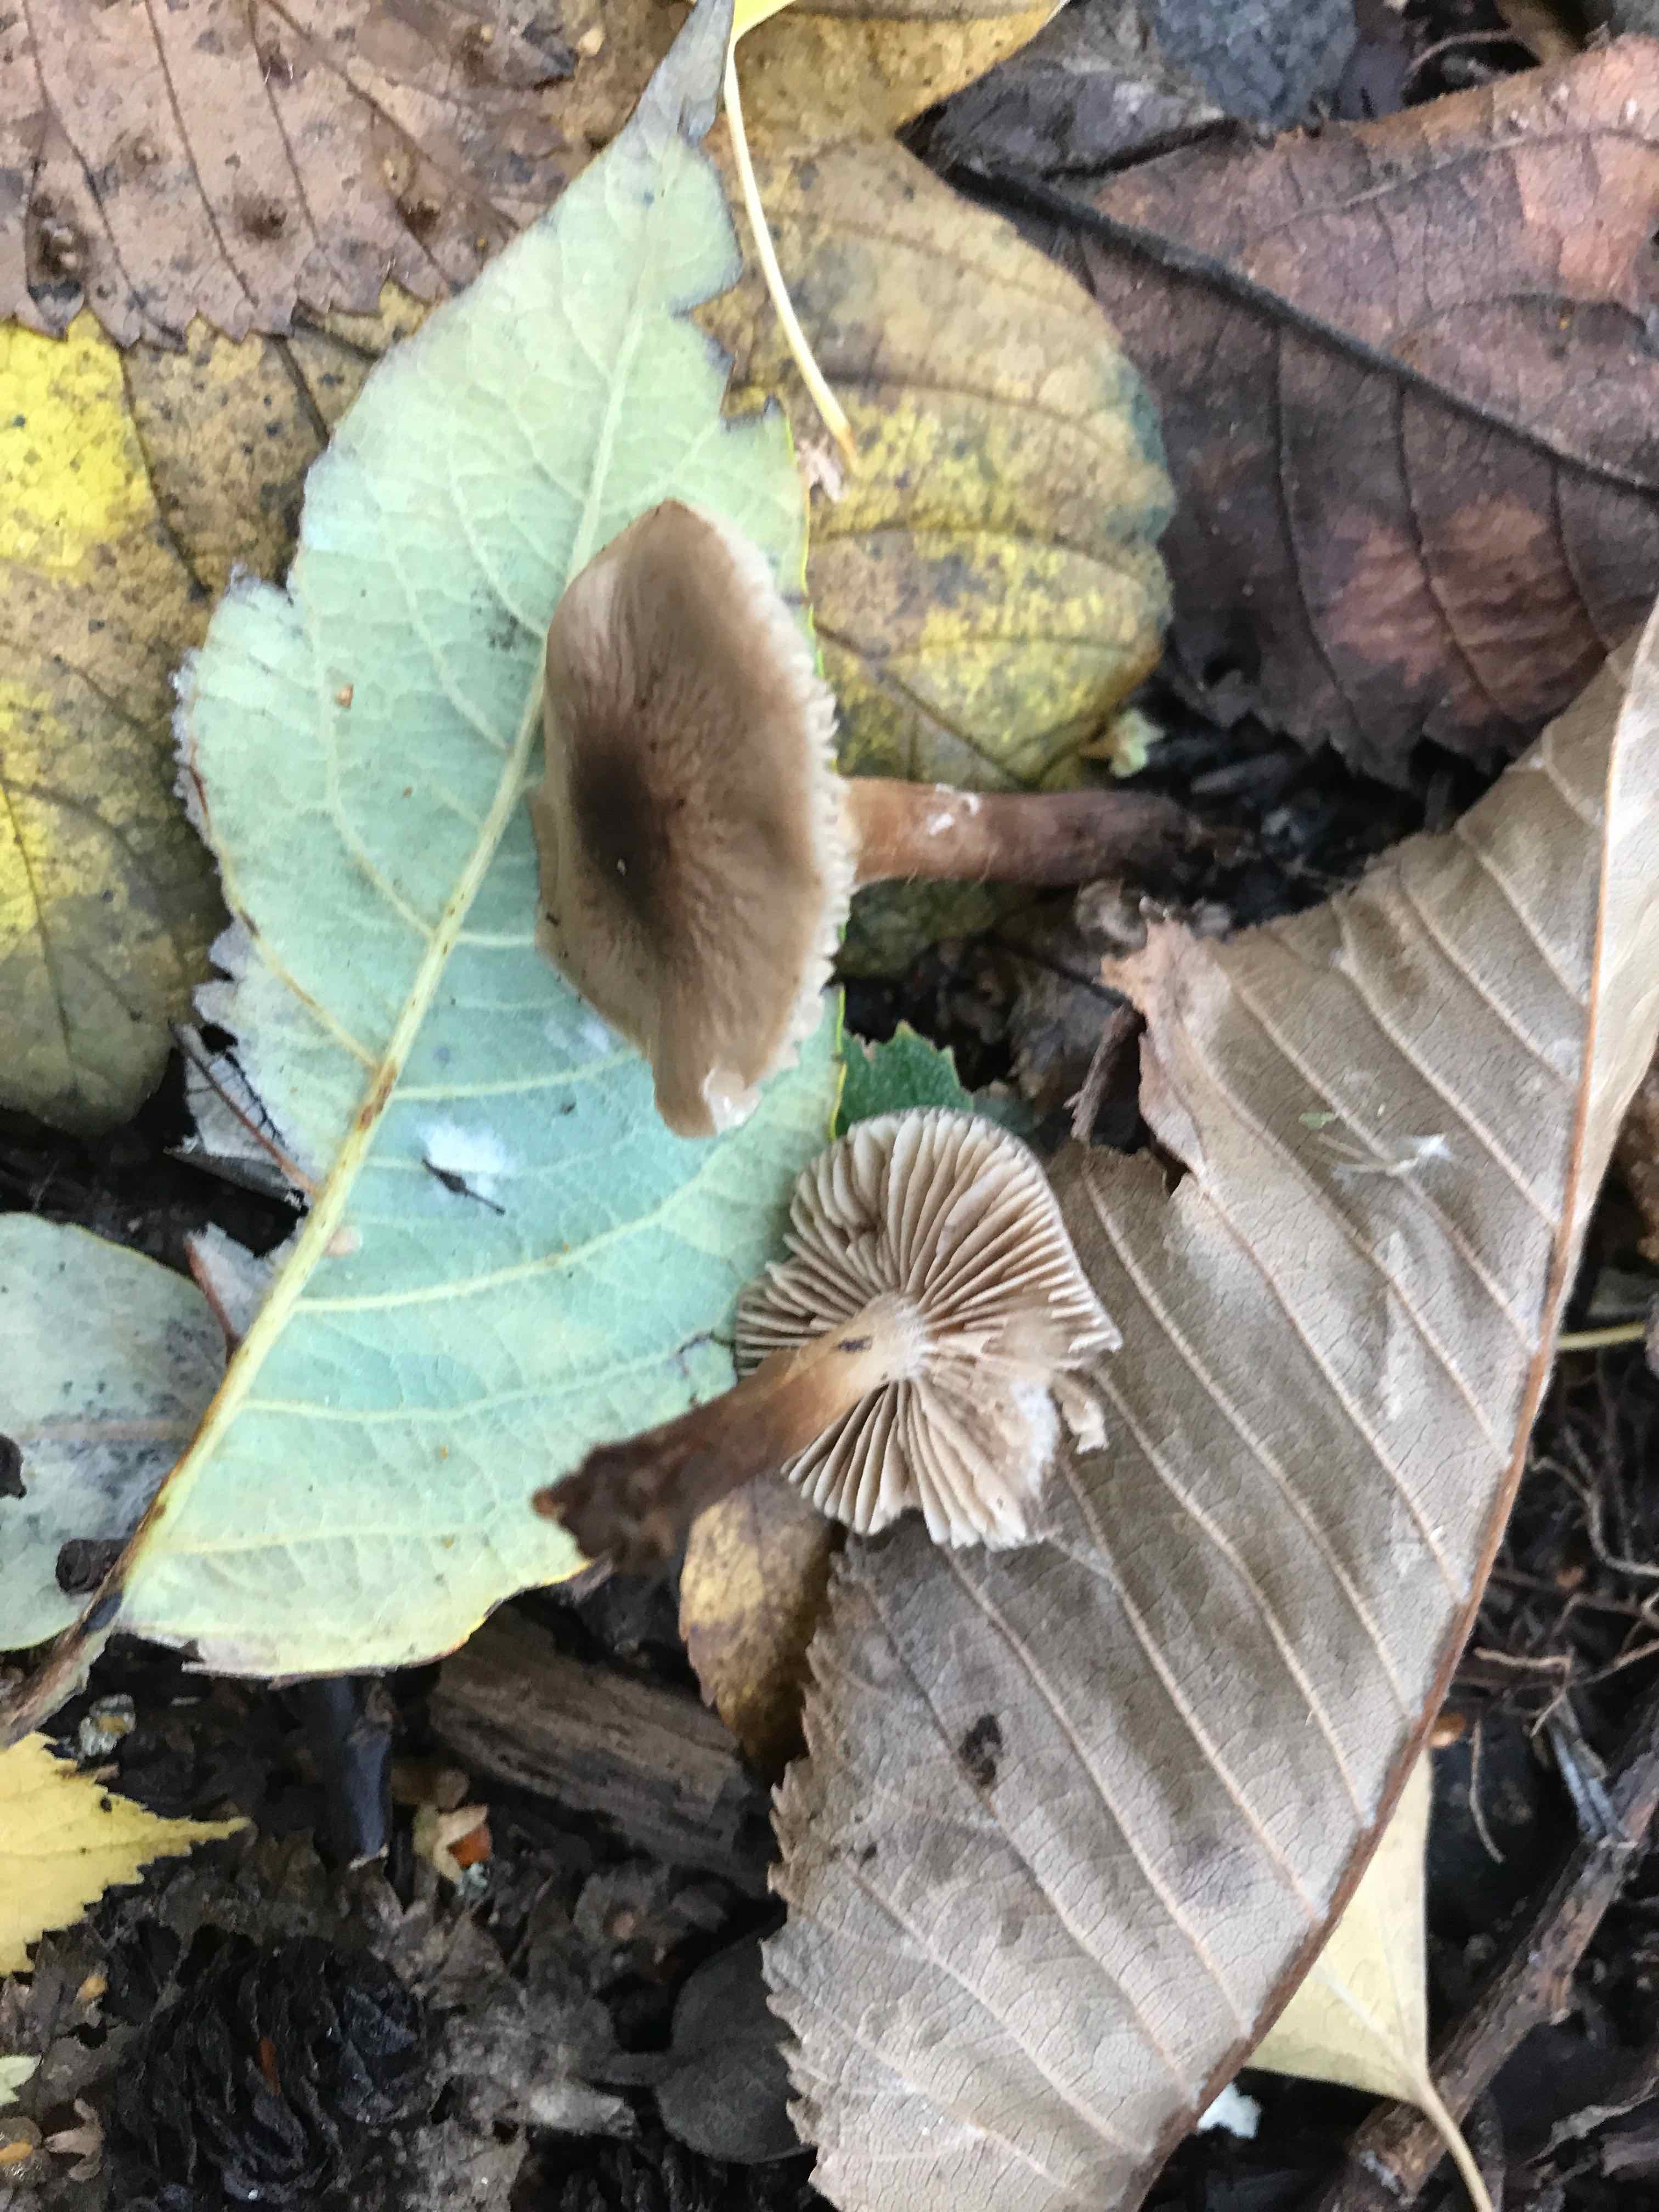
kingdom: Fungi
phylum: Basidiomycota
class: Agaricomycetes
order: Agaricales
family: Hymenogastraceae
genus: Hebeloma
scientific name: Hebeloma
